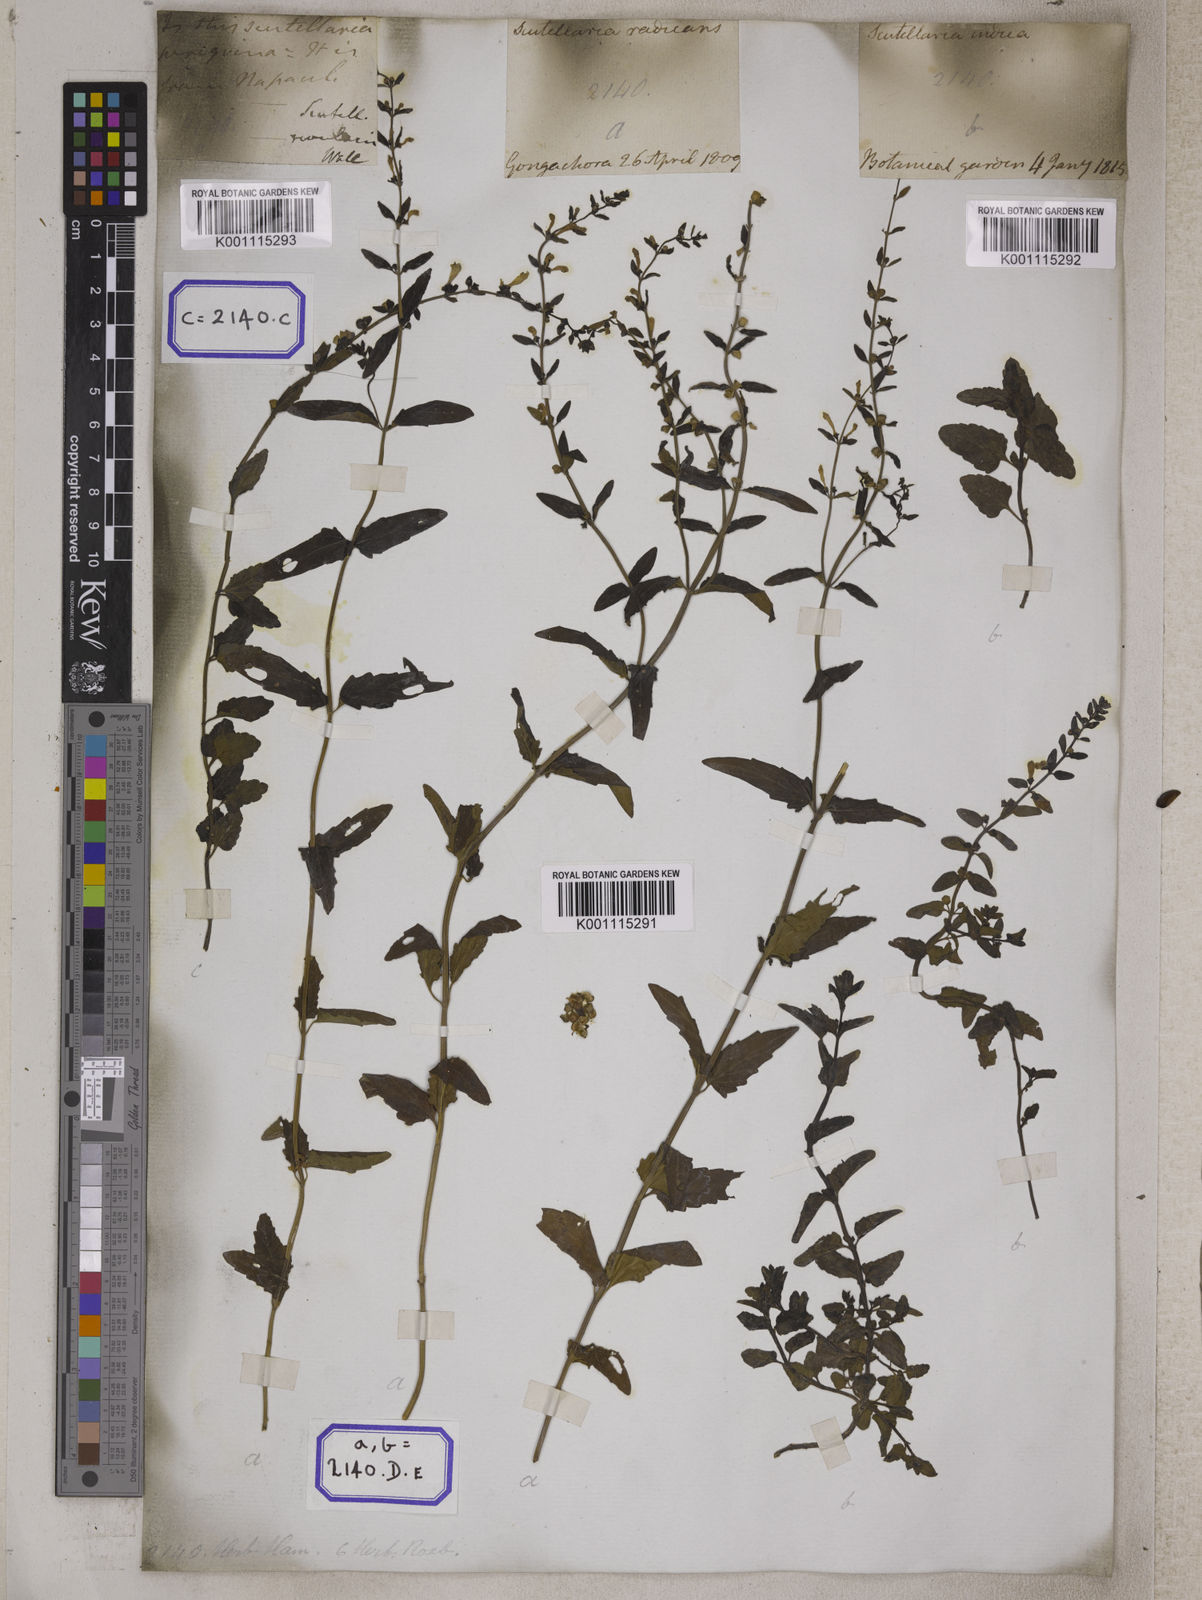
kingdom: Plantae
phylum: Tracheophyta
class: Magnoliopsida
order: Lamiales
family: Lamiaceae
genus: Scutellaria
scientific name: Scutellaria
